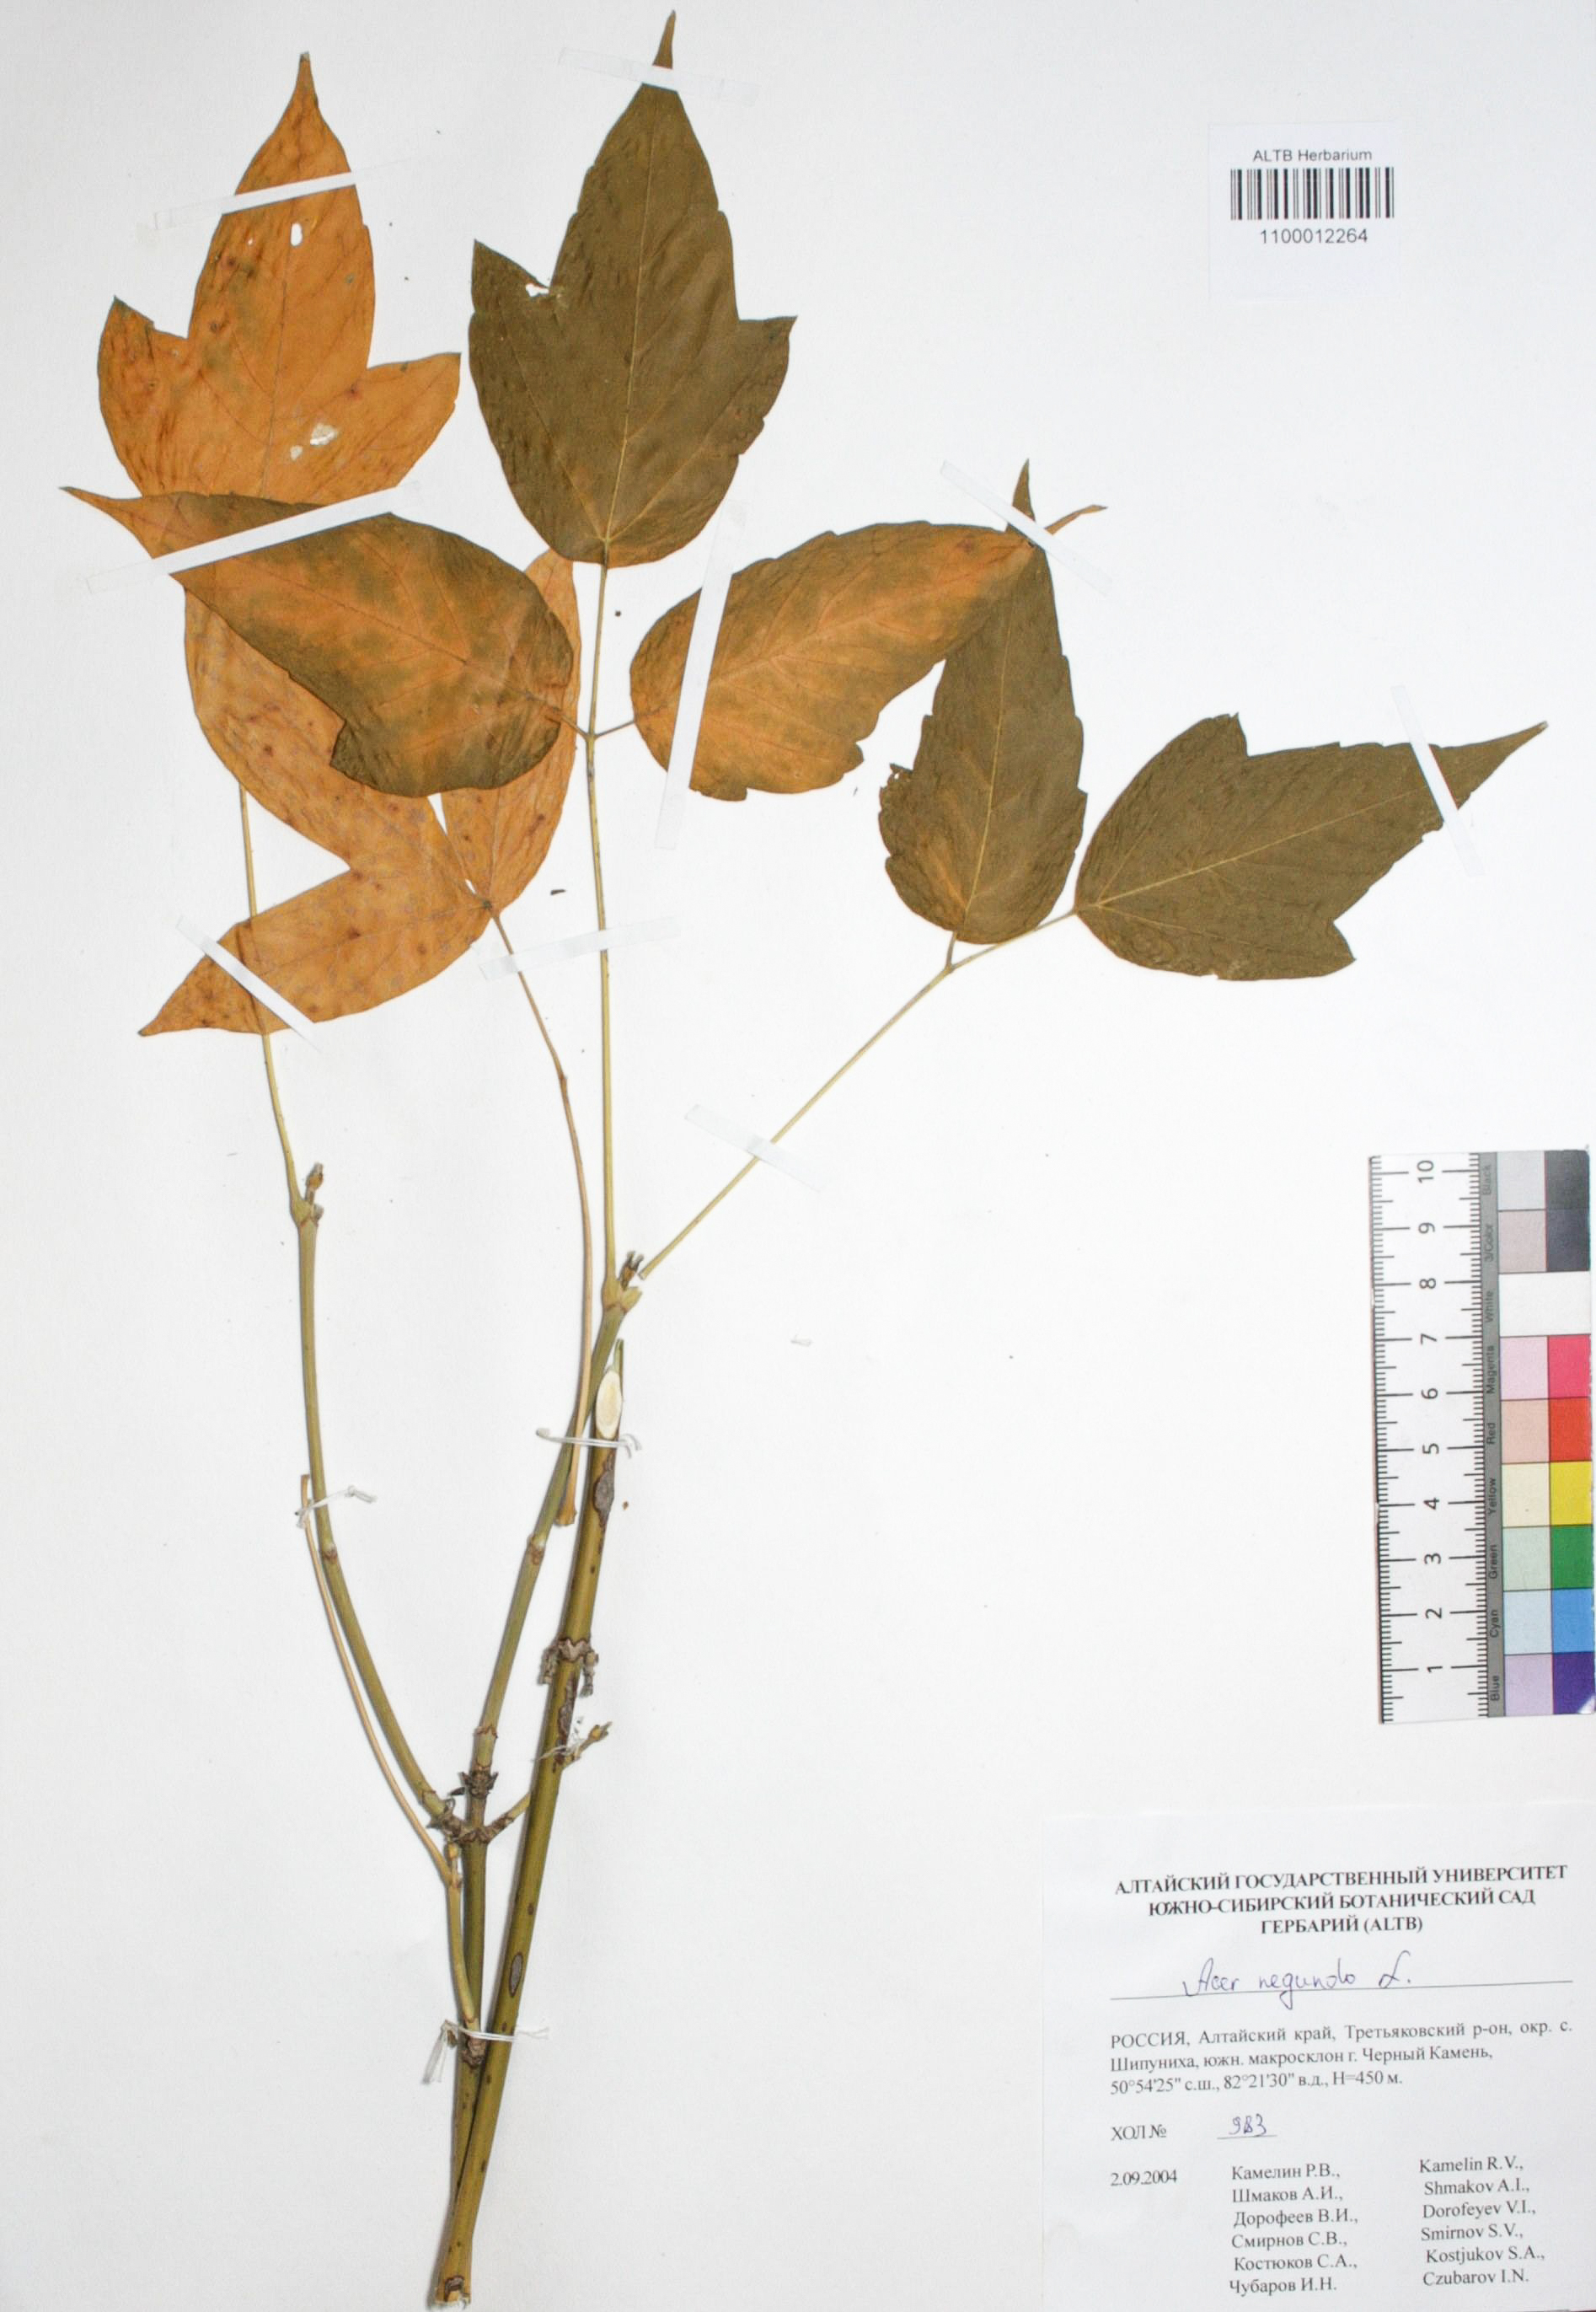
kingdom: Plantae
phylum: Tracheophyta
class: Magnoliopsida
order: Sapindales
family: Sapindaceae
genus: Acer
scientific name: Acer negundo
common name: Ashleaf maple
